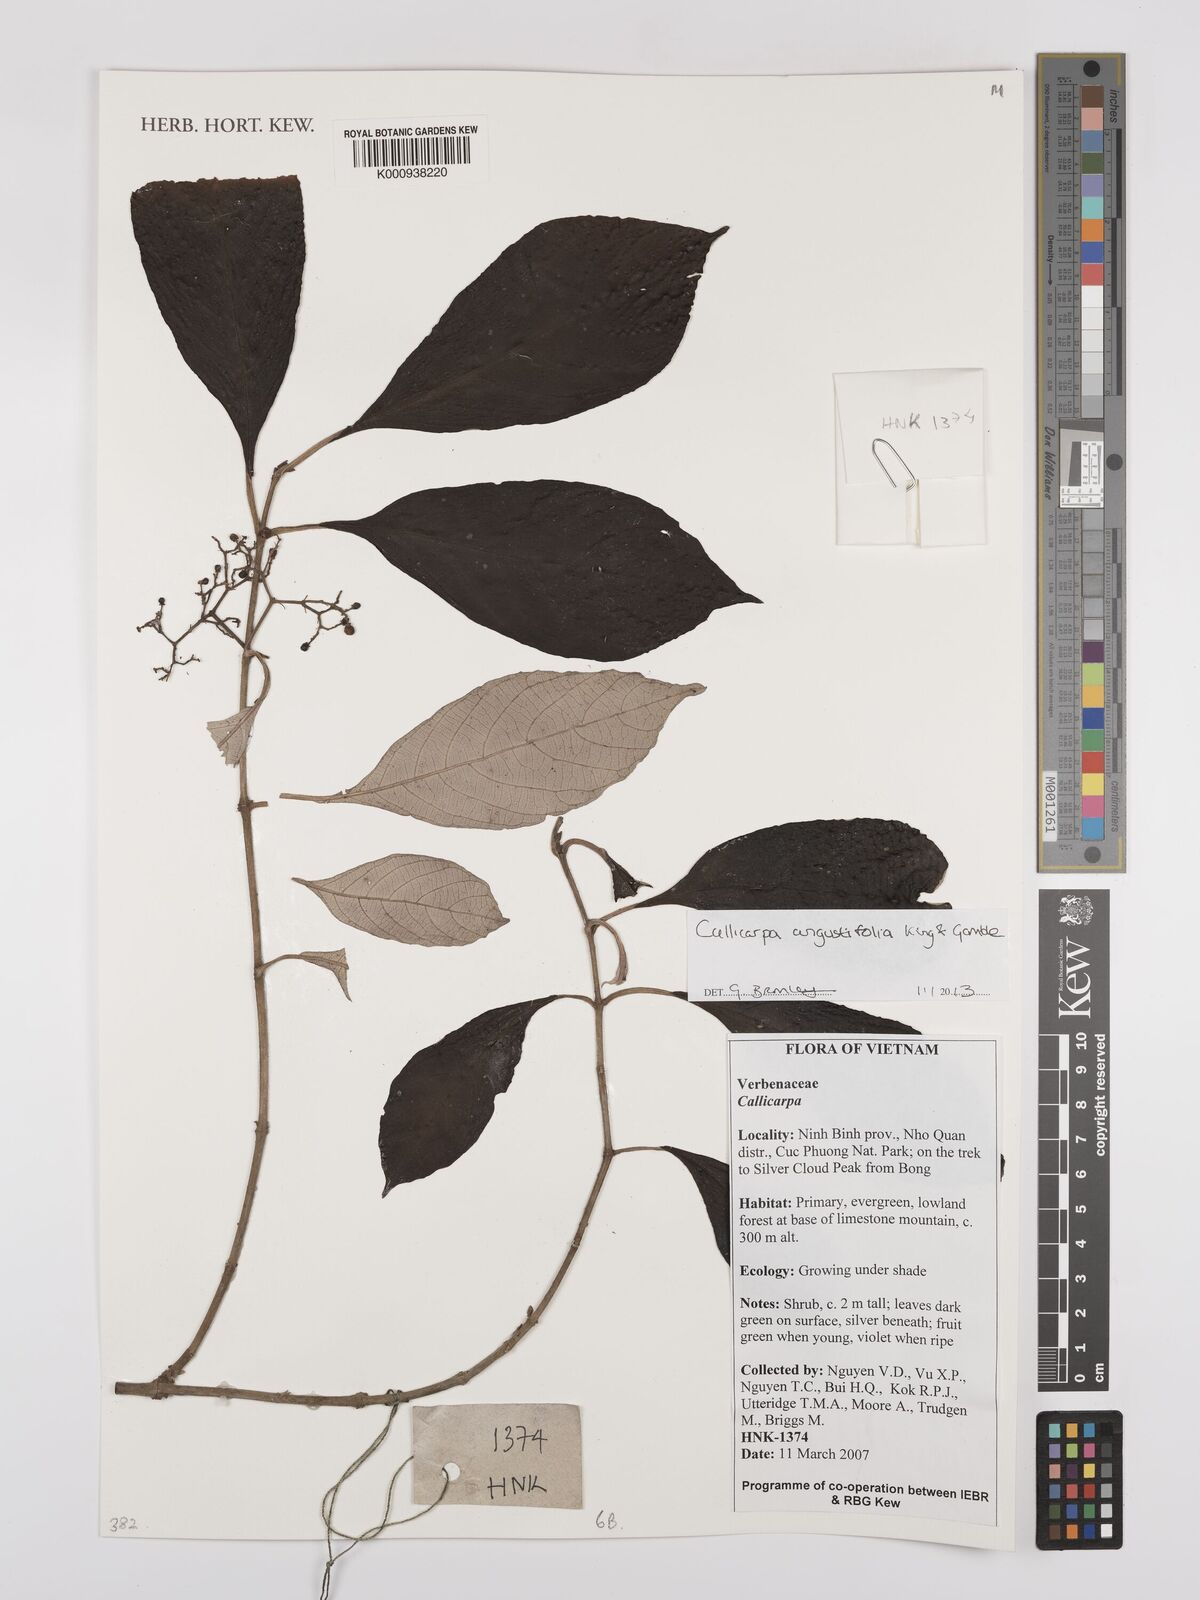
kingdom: Plantae
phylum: Tracheophyta
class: Magnoliopsida
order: Lamiales
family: Lamiaceae
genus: Callicarpa
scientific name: Callicarpa angustifolia
